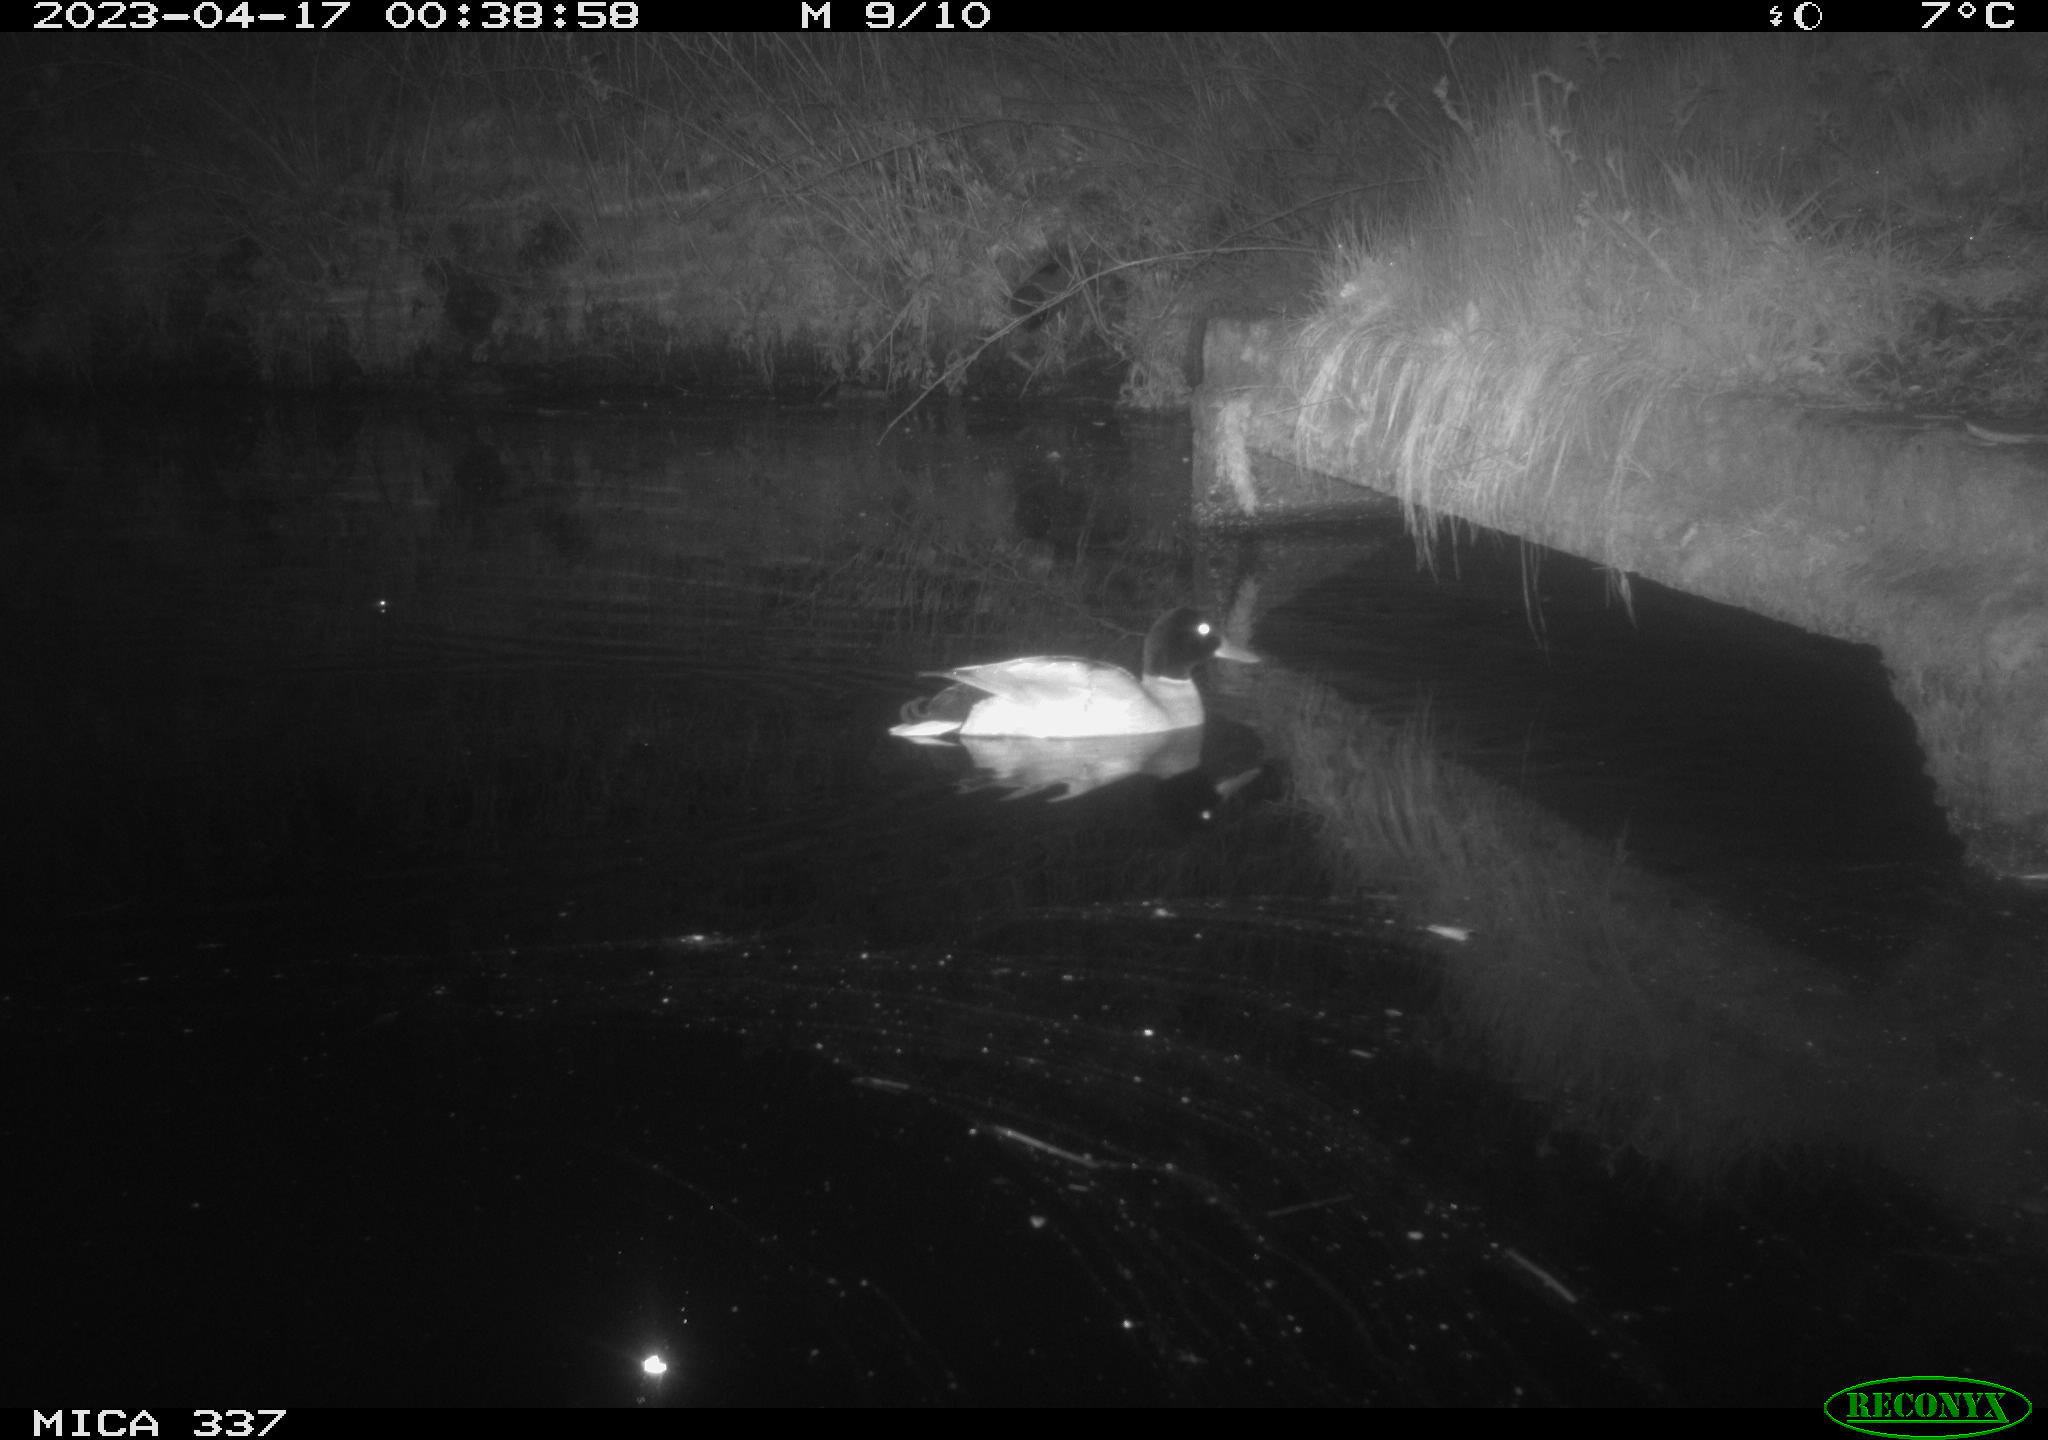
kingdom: Animalia
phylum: Chordata
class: Aves
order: Anseriformes
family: Anatidae
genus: Anas
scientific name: Anas
